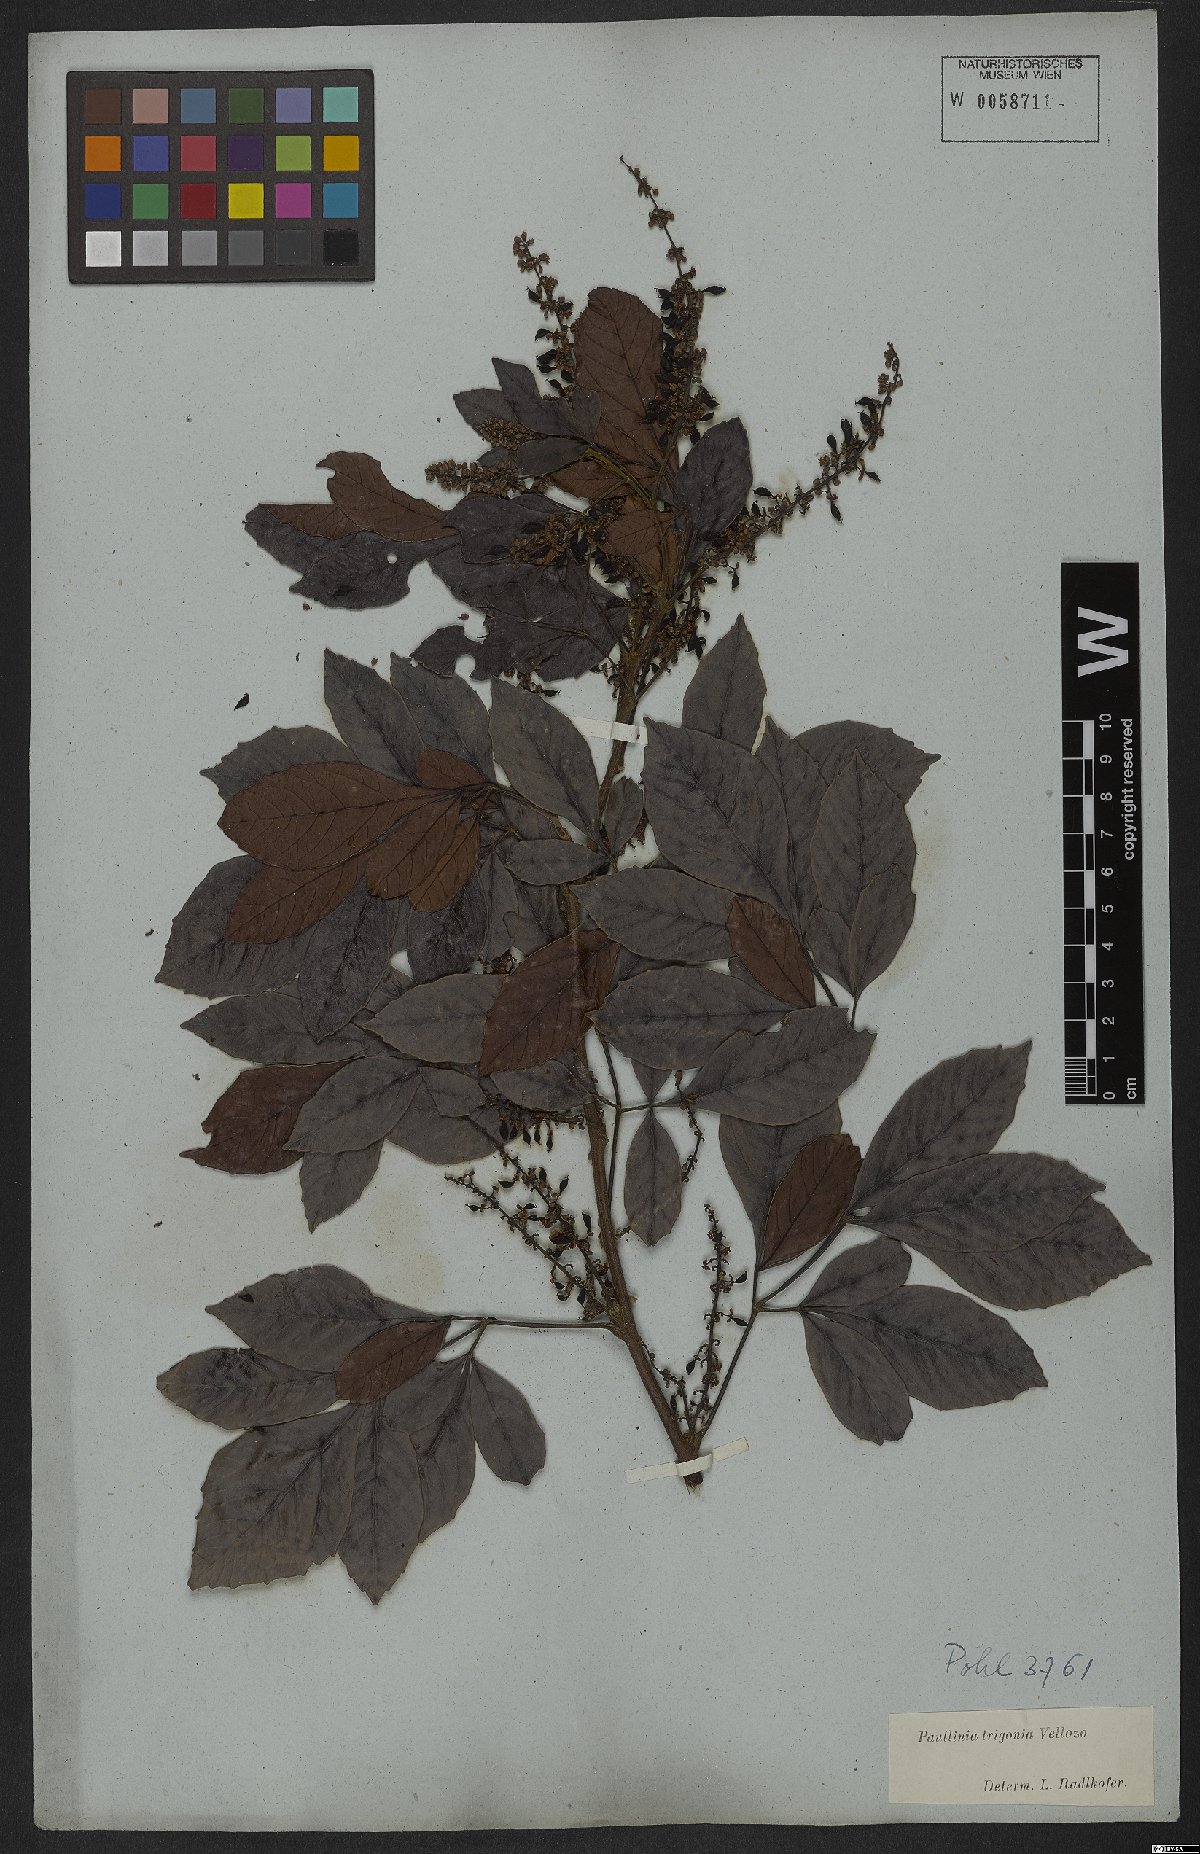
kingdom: Plantae
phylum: Tracheophyta
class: Magnoliopsida
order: Sapindales
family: Sapindaceae
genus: Paullinia
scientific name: Paullinia trigonia
